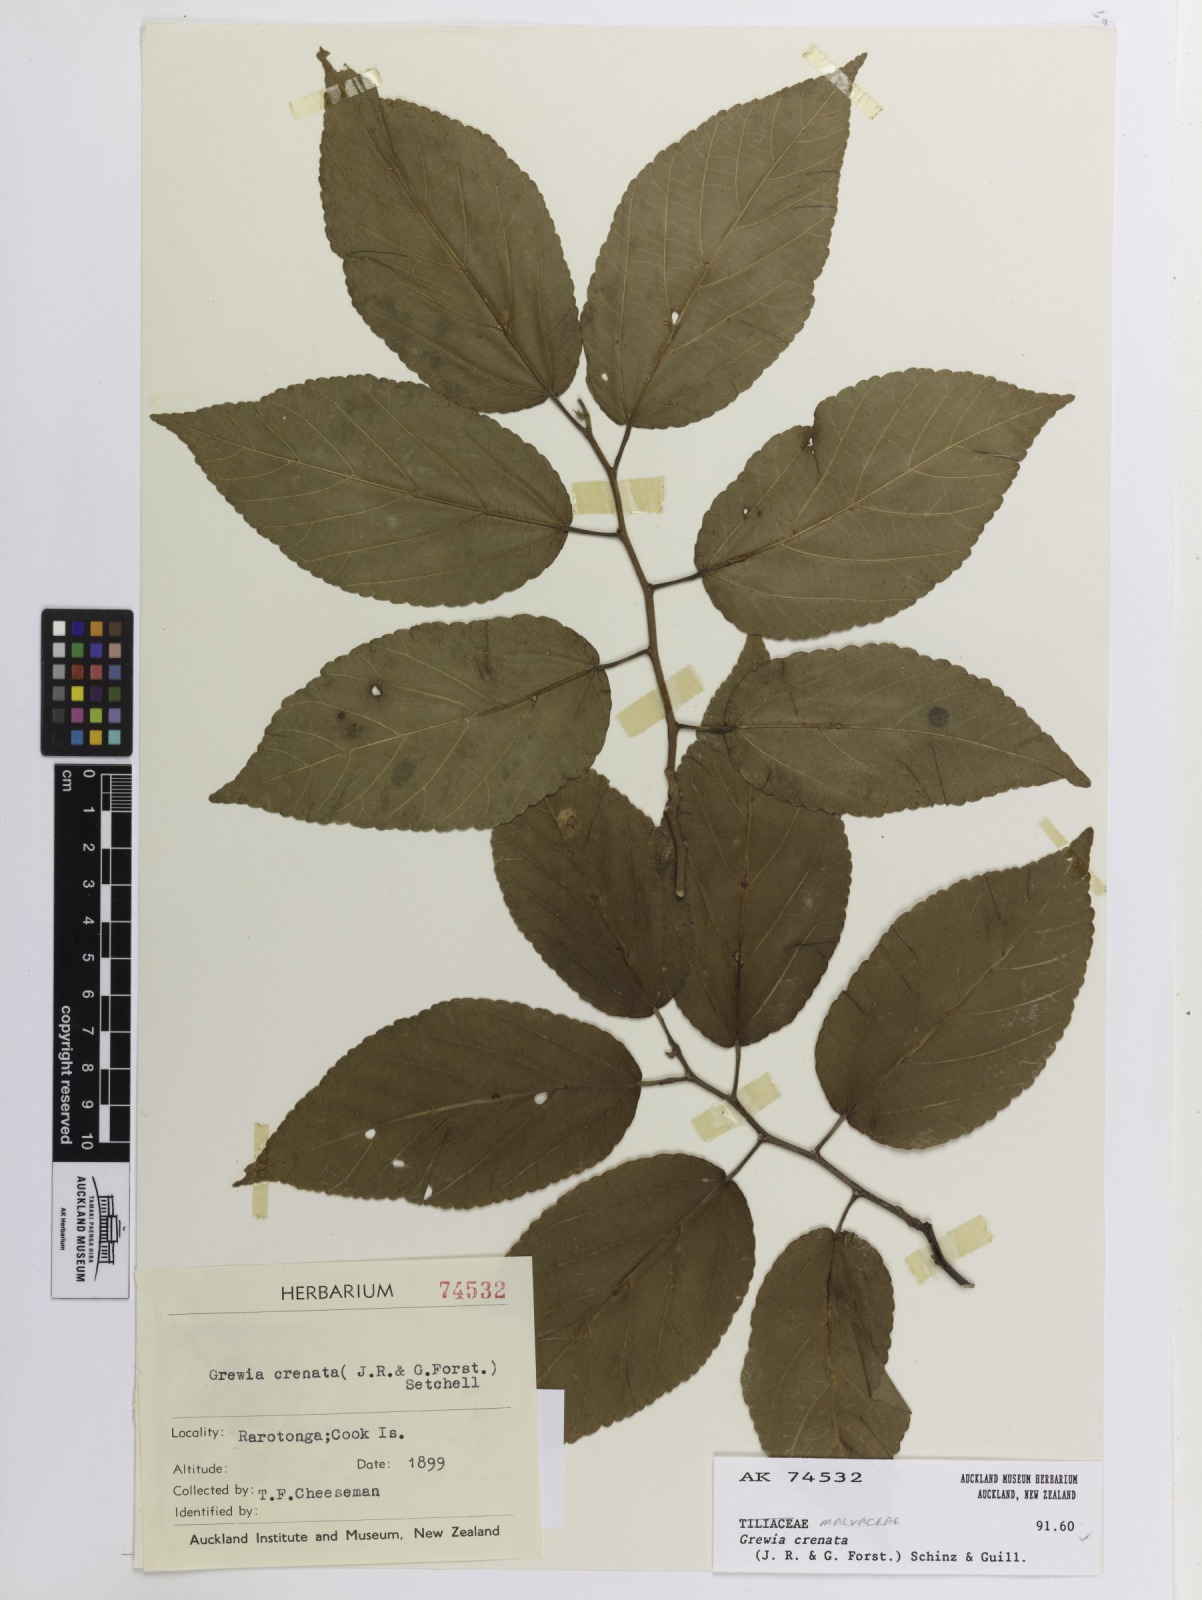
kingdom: Plantae
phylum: Tracheophyta
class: Magnoliopsida
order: Malvales
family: Malvaceae
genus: Grewia
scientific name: Grewia crenata
